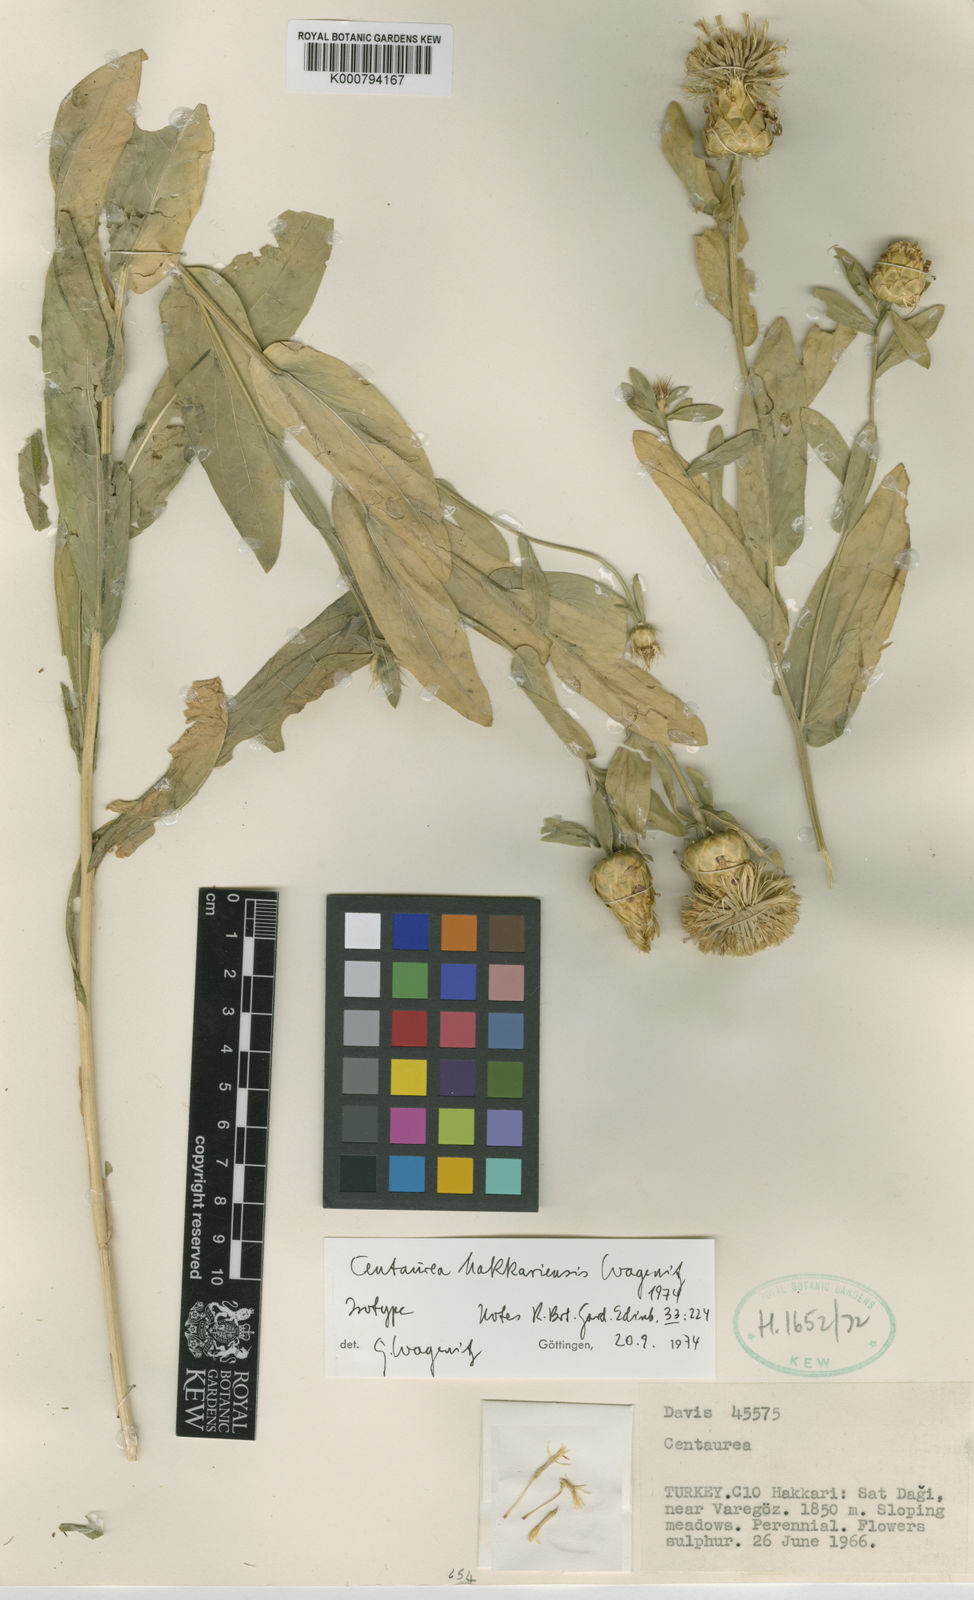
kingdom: Plantae
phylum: Tracheophyta
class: Magnoliopsida
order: Asterales
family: Asteraceae
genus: Centaurea
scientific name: Centaurea hakkariensis
